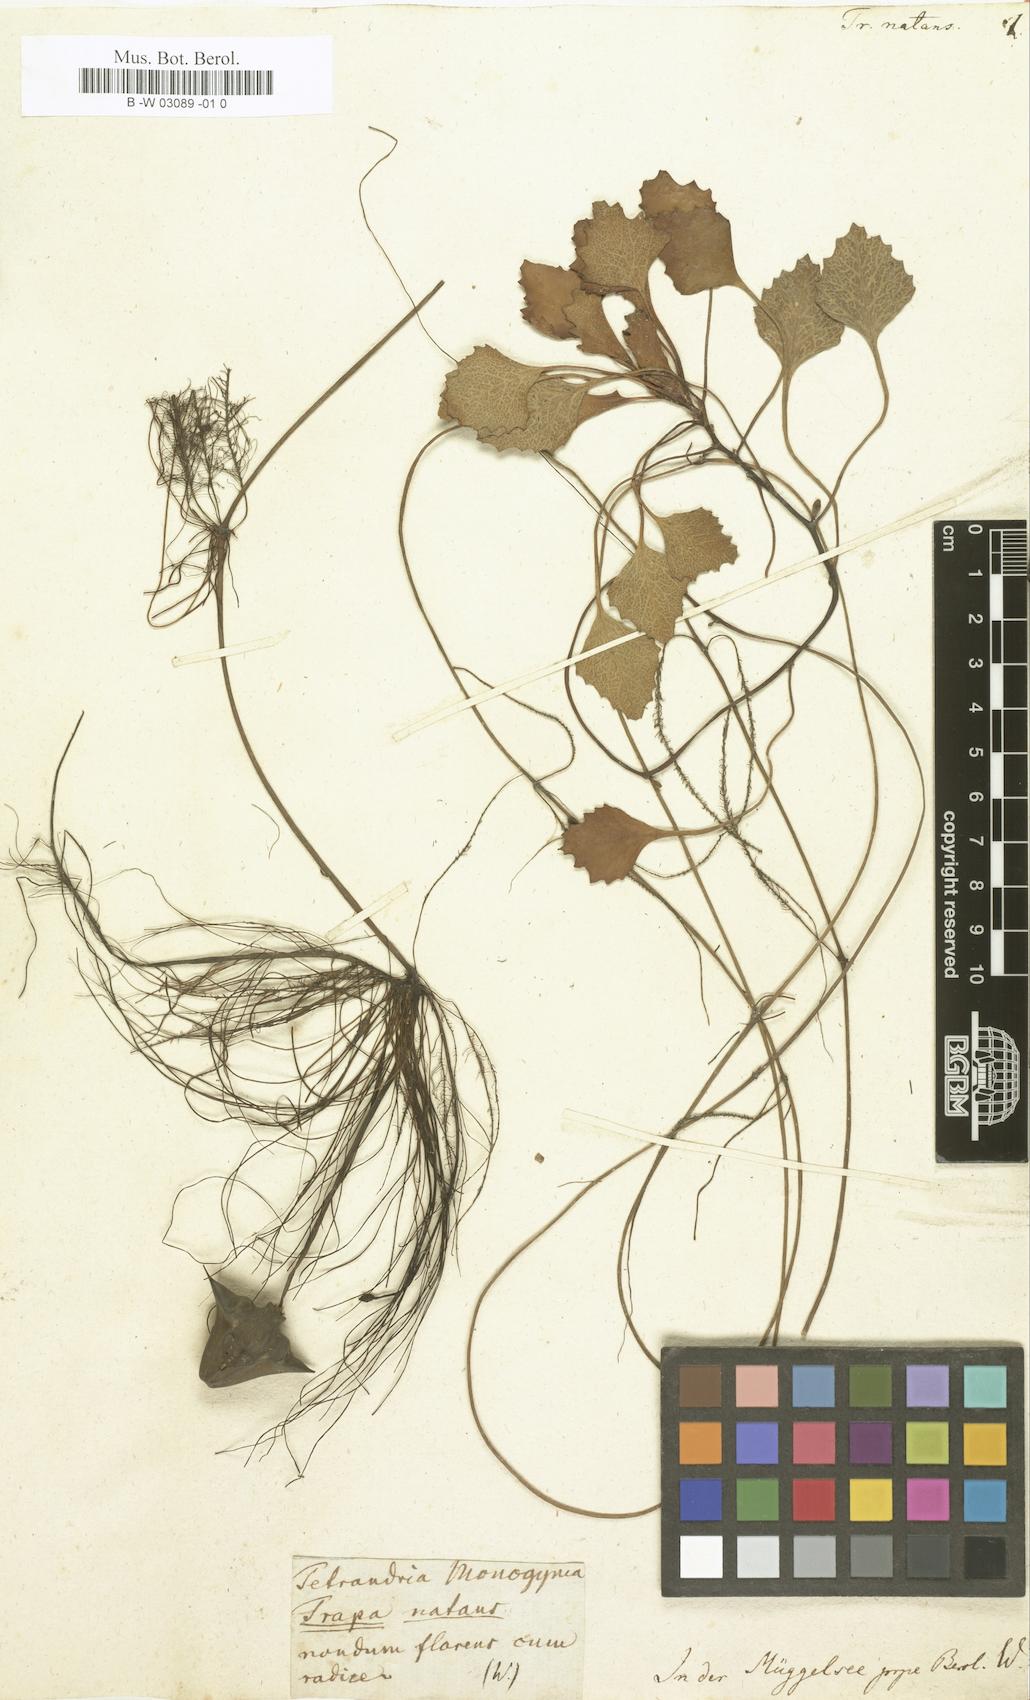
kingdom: Plantae
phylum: Tracheophyta
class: Magnoliopsida
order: Myrtales
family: Lythraceae
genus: Trapa
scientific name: Trapa natans
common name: Water chestnut
